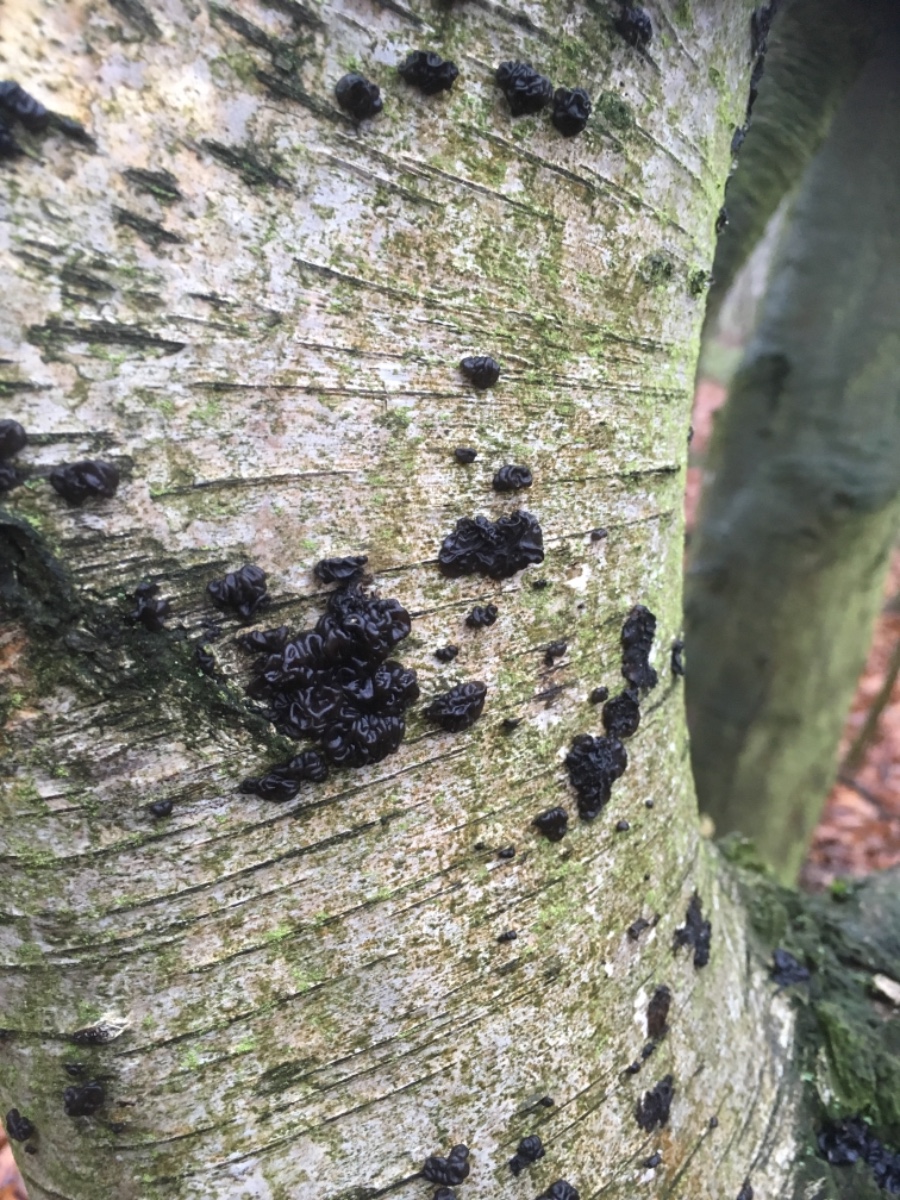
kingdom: Fungi
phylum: Basidiomycota
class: Agaricomycetes
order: Auriculariales
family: Auriculariaceae
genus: Exidia
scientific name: Exidia nigricans
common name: almindelig bævretop
